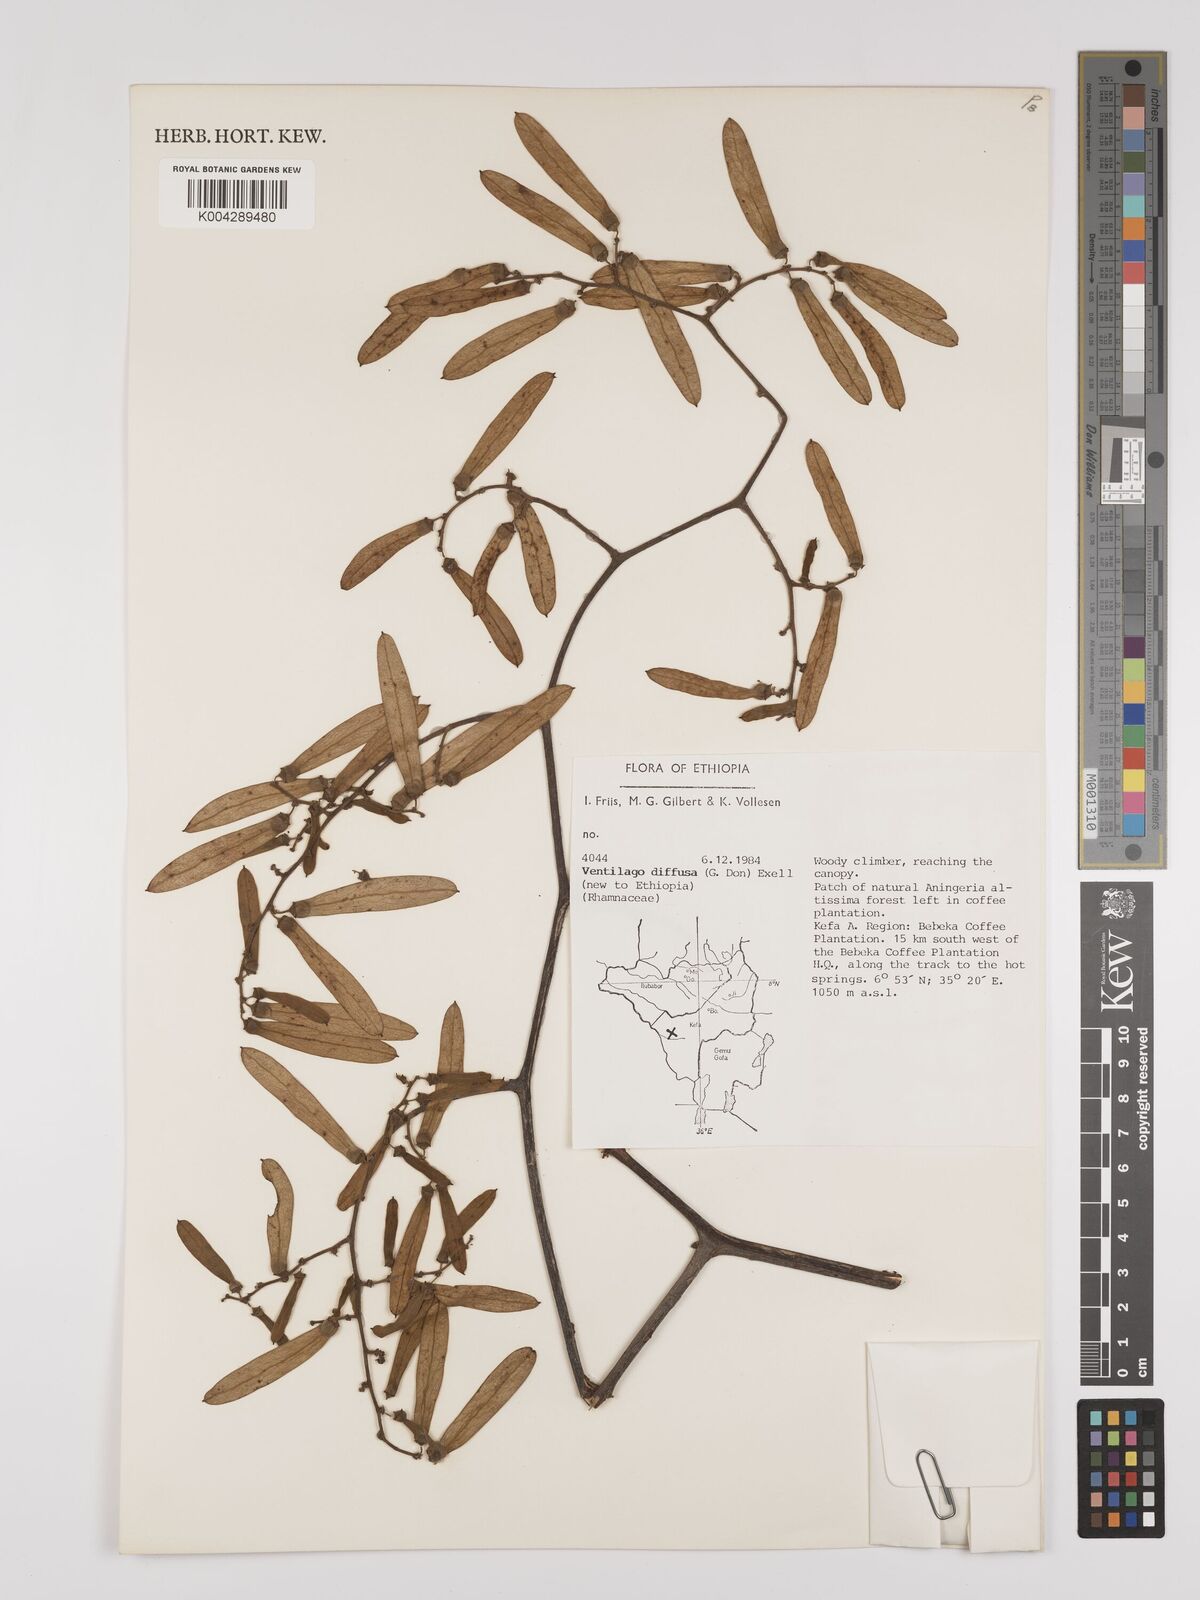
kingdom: Plantae
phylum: Tracheophyta
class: Magnoliopsida
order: Rosales
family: Rhamnaceae
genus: Ventilago
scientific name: Ventilago diffusa
